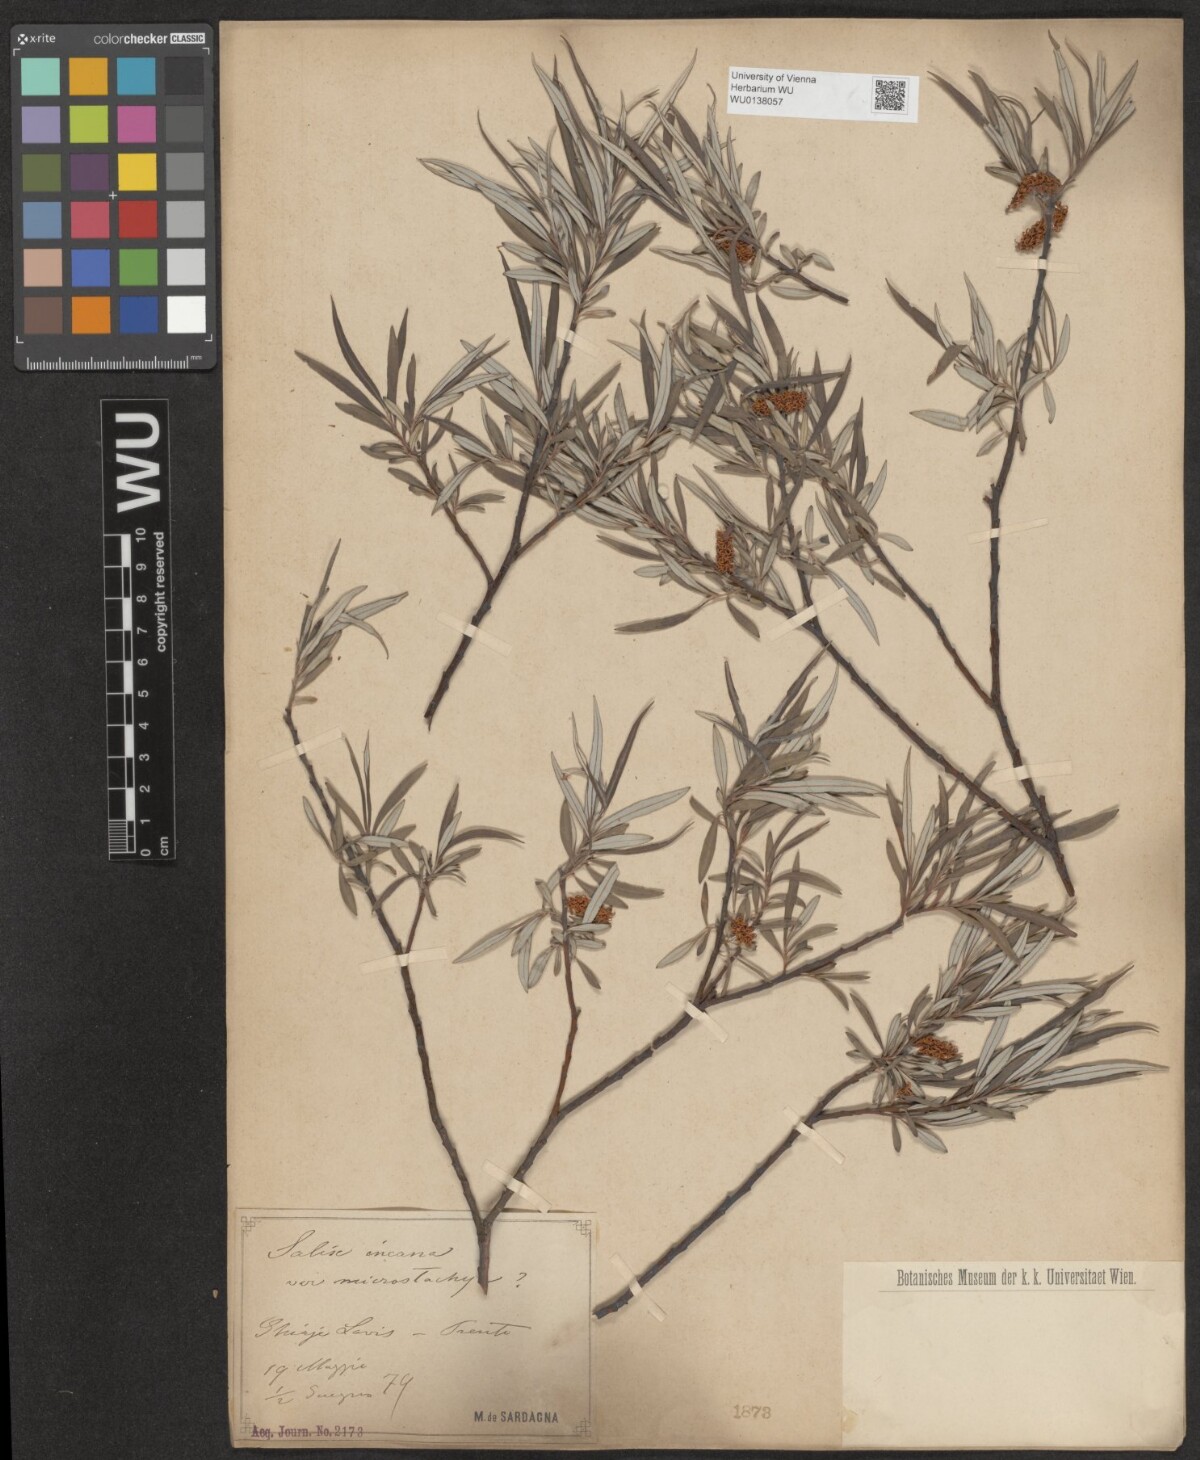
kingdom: Plantae
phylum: Tracheophyta
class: Magnoliopsida
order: Malpighiales
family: Salicaceae
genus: Salix
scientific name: Salix eleagnos
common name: Elaeagnus willow
